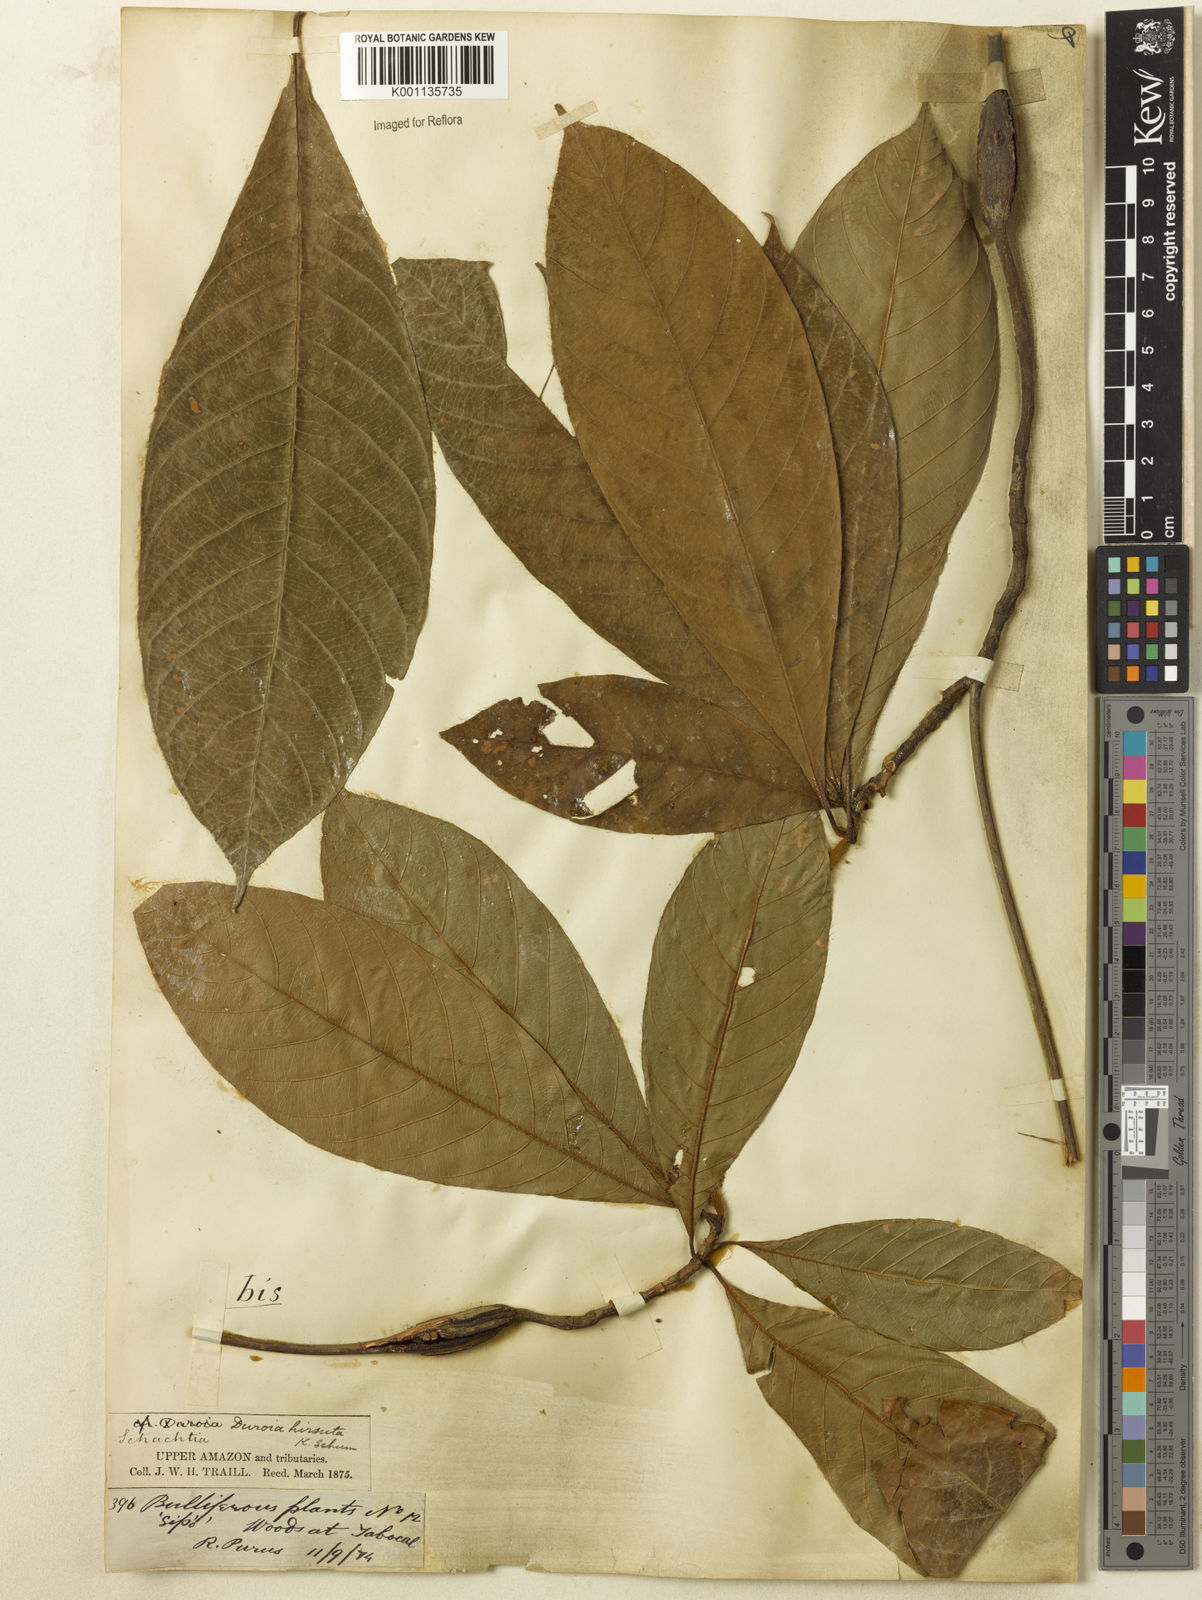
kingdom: Plantae
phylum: Tracheophyta
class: Magnoliopsida
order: Gentianales
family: Rubiaceae
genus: Duroia
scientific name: Duroia hirsuta
